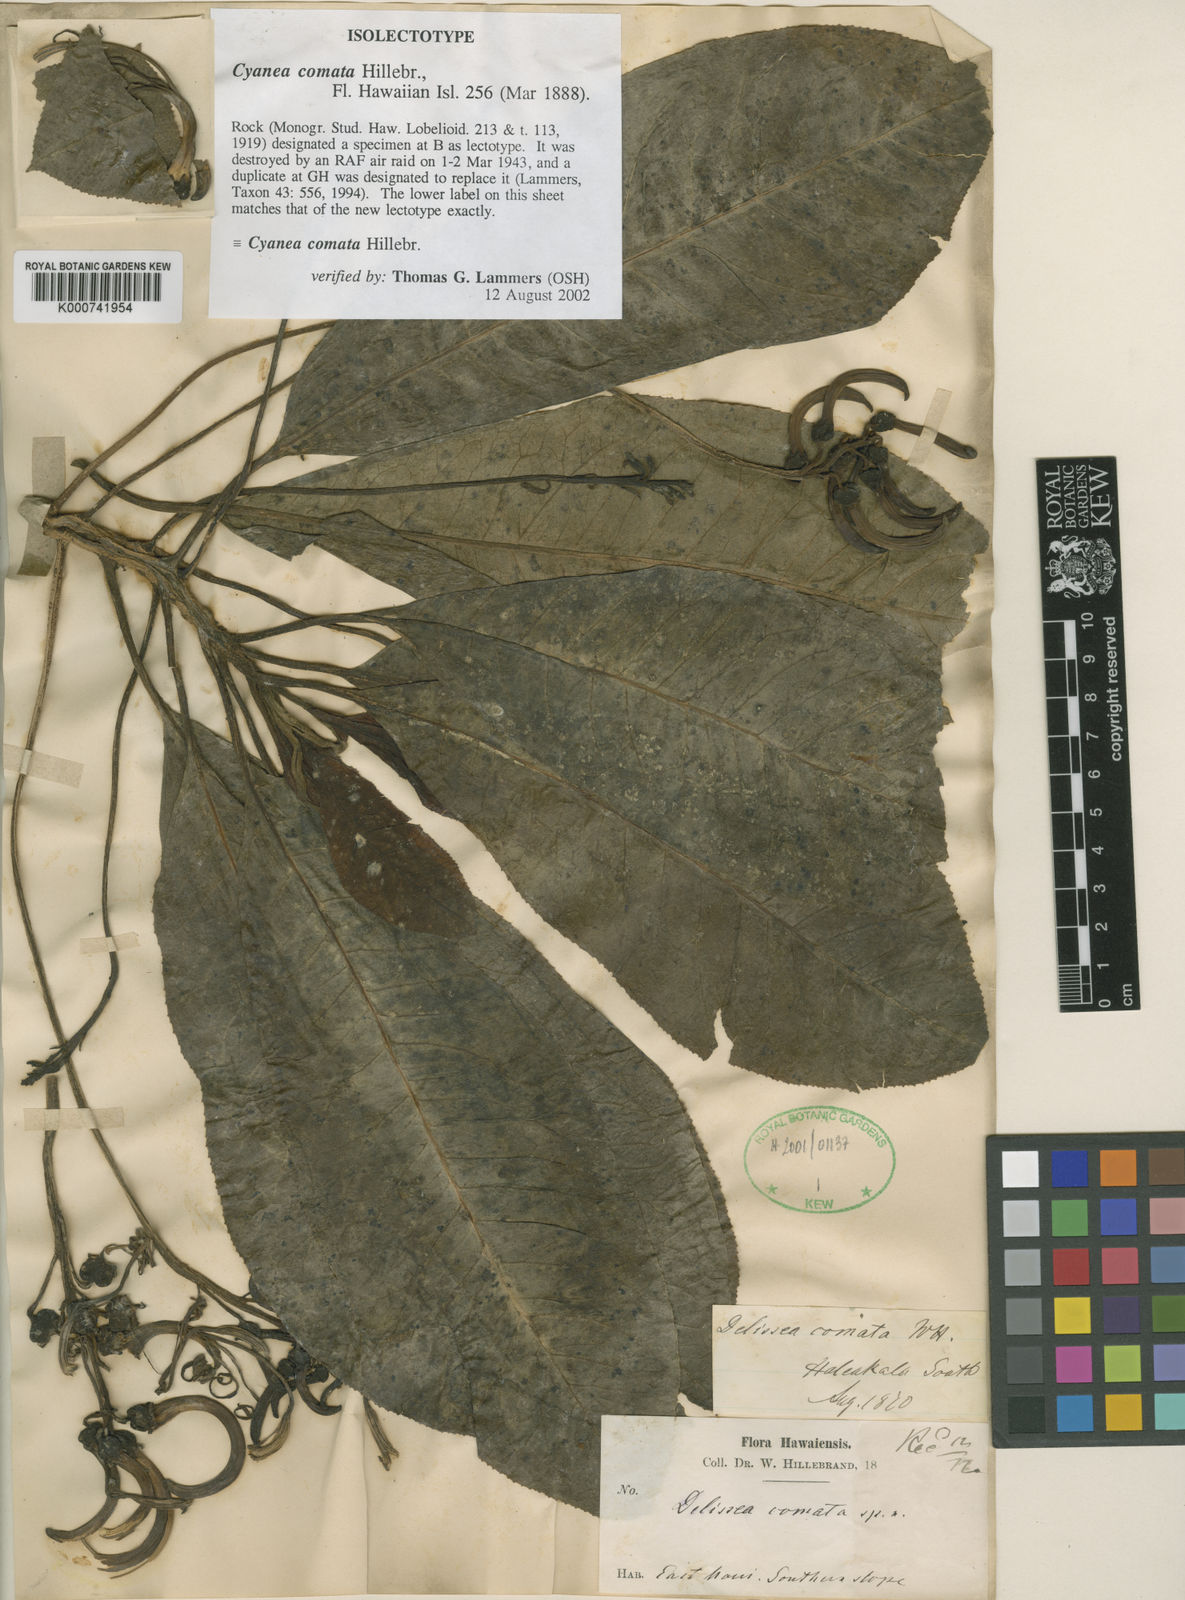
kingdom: Plantae
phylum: Tracheophyta
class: Magnoliopsida
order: Asterales
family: Campanulaceae
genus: Cyanea
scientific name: Cyanea comata
